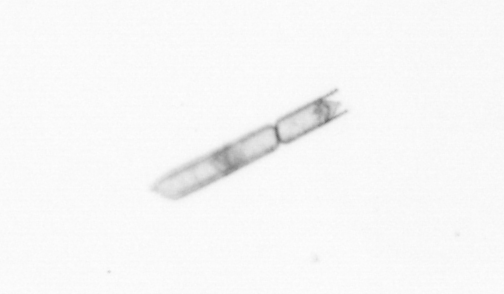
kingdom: Chromista
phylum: Ochrophyta
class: Bacillariophyceae
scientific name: Bacillariophyceae
